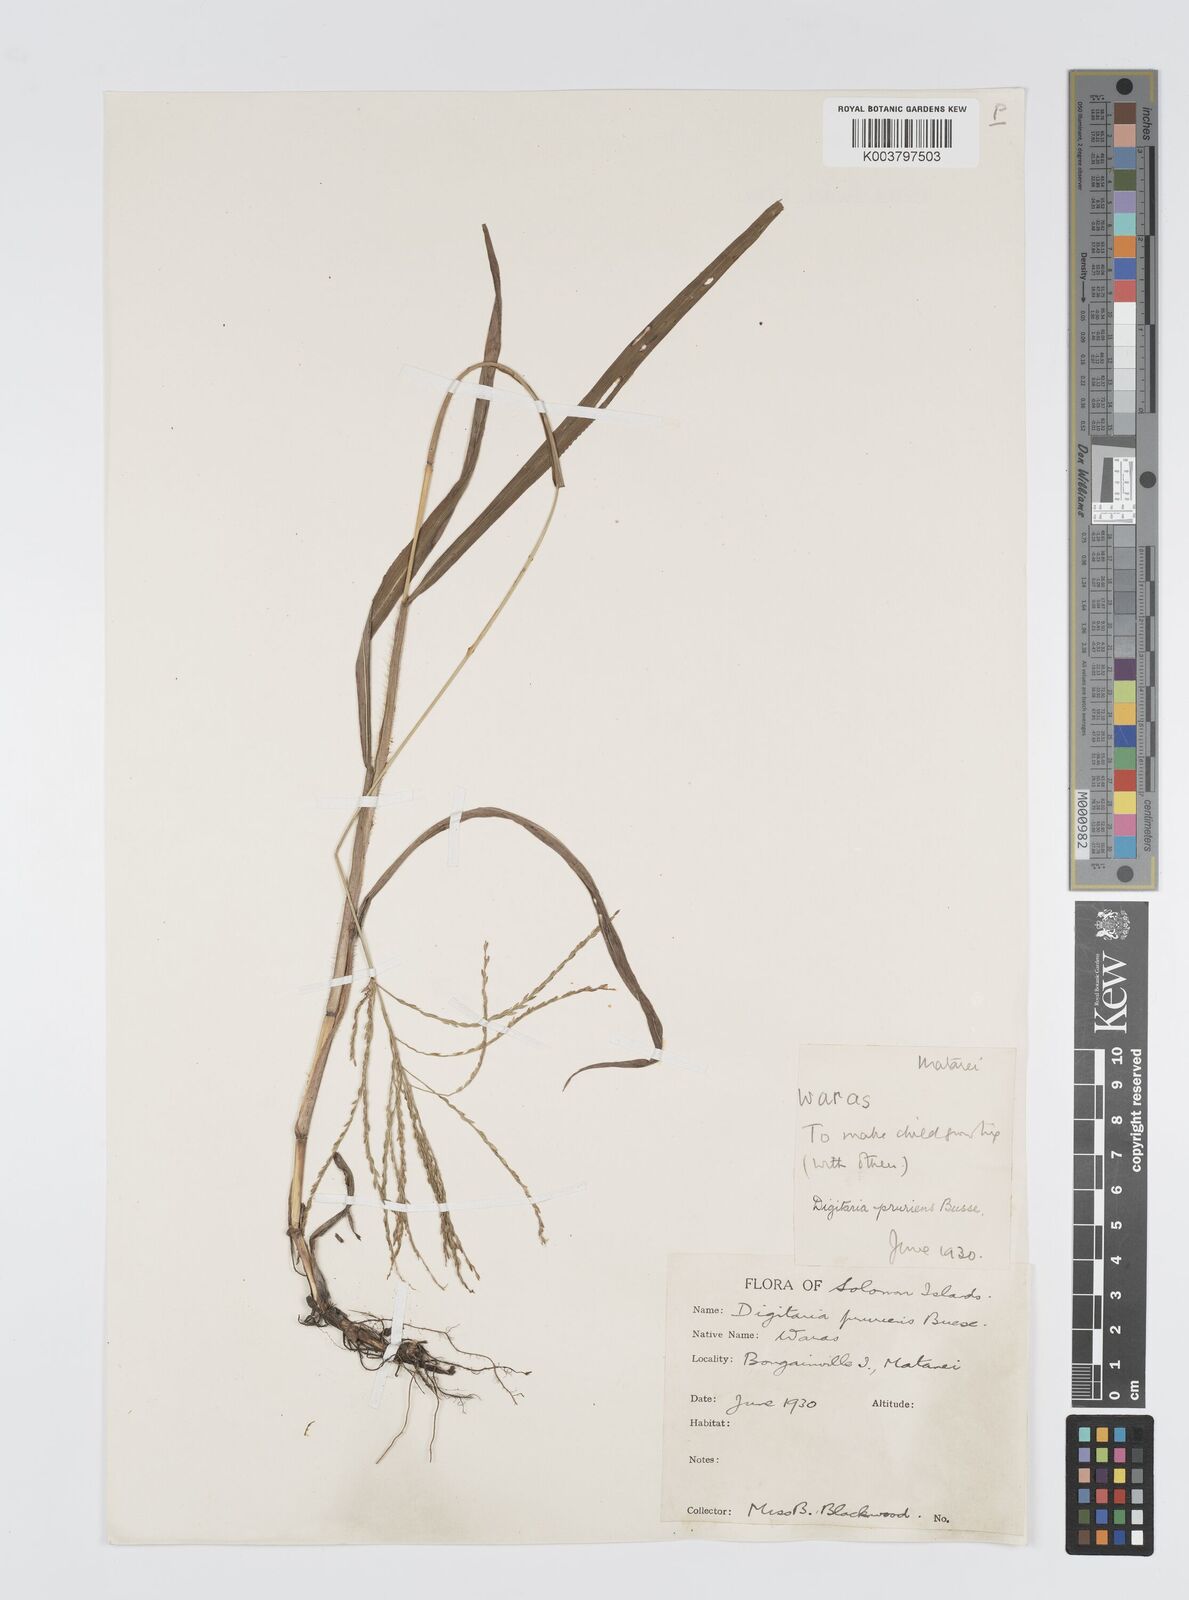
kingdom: Plantae
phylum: Tracheophyta
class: Liliopsida
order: Poales
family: Poaceae
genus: Digitaria
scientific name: Digitaria setigera
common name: East indian crabgrass
